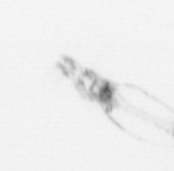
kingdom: Chromista
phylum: Ochrophyta
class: Bacillariophyceae
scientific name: Bacillariophyceae
